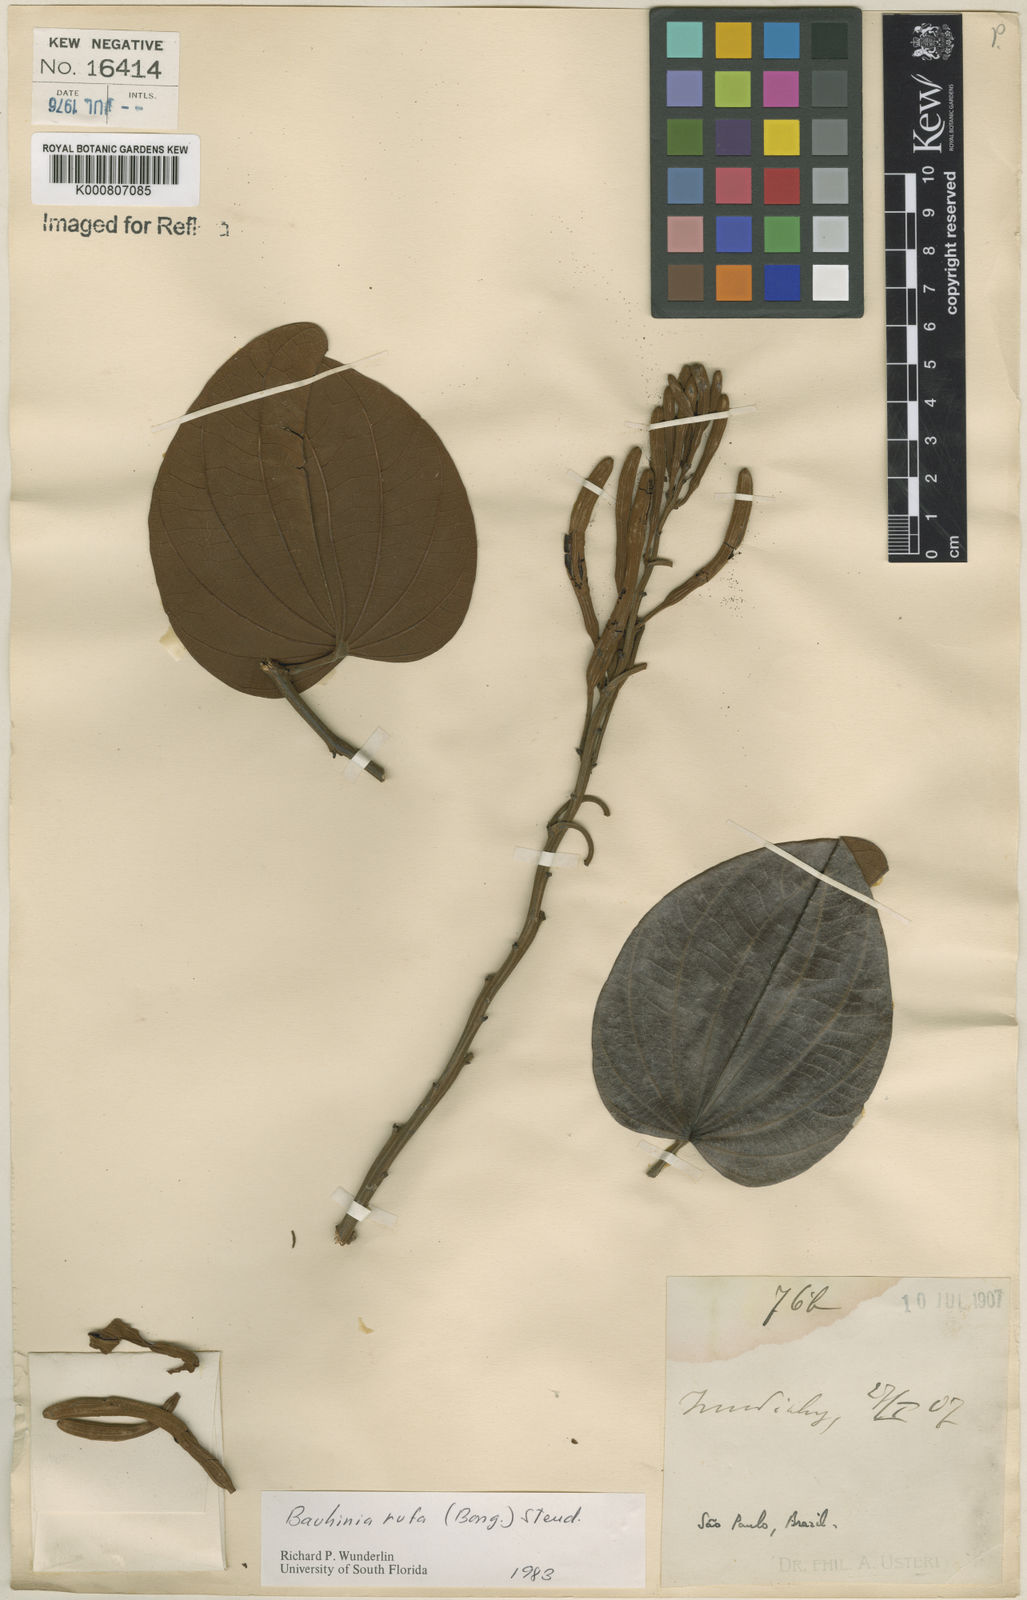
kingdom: Plantae
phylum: Tracheophyta
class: Magnoliopsida
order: Fabales
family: Fabaceae
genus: Bauhinia
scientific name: Bauhinia rufa
